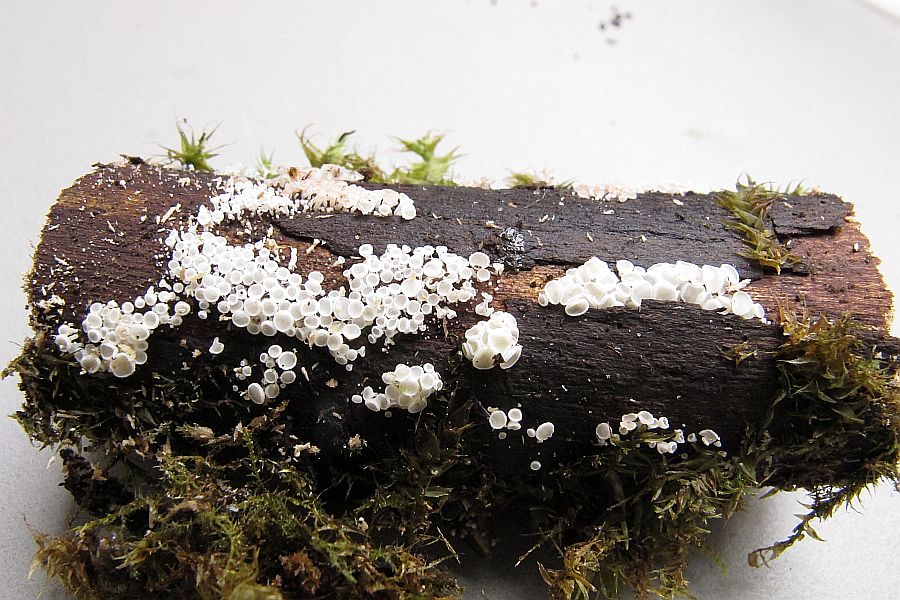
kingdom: Fungi
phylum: Ascomycota
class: Leotiomycetes
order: Helotiales
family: Lachnaceae
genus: Lachnum
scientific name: Lachnum virgineum
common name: jomfru-frynseskive
